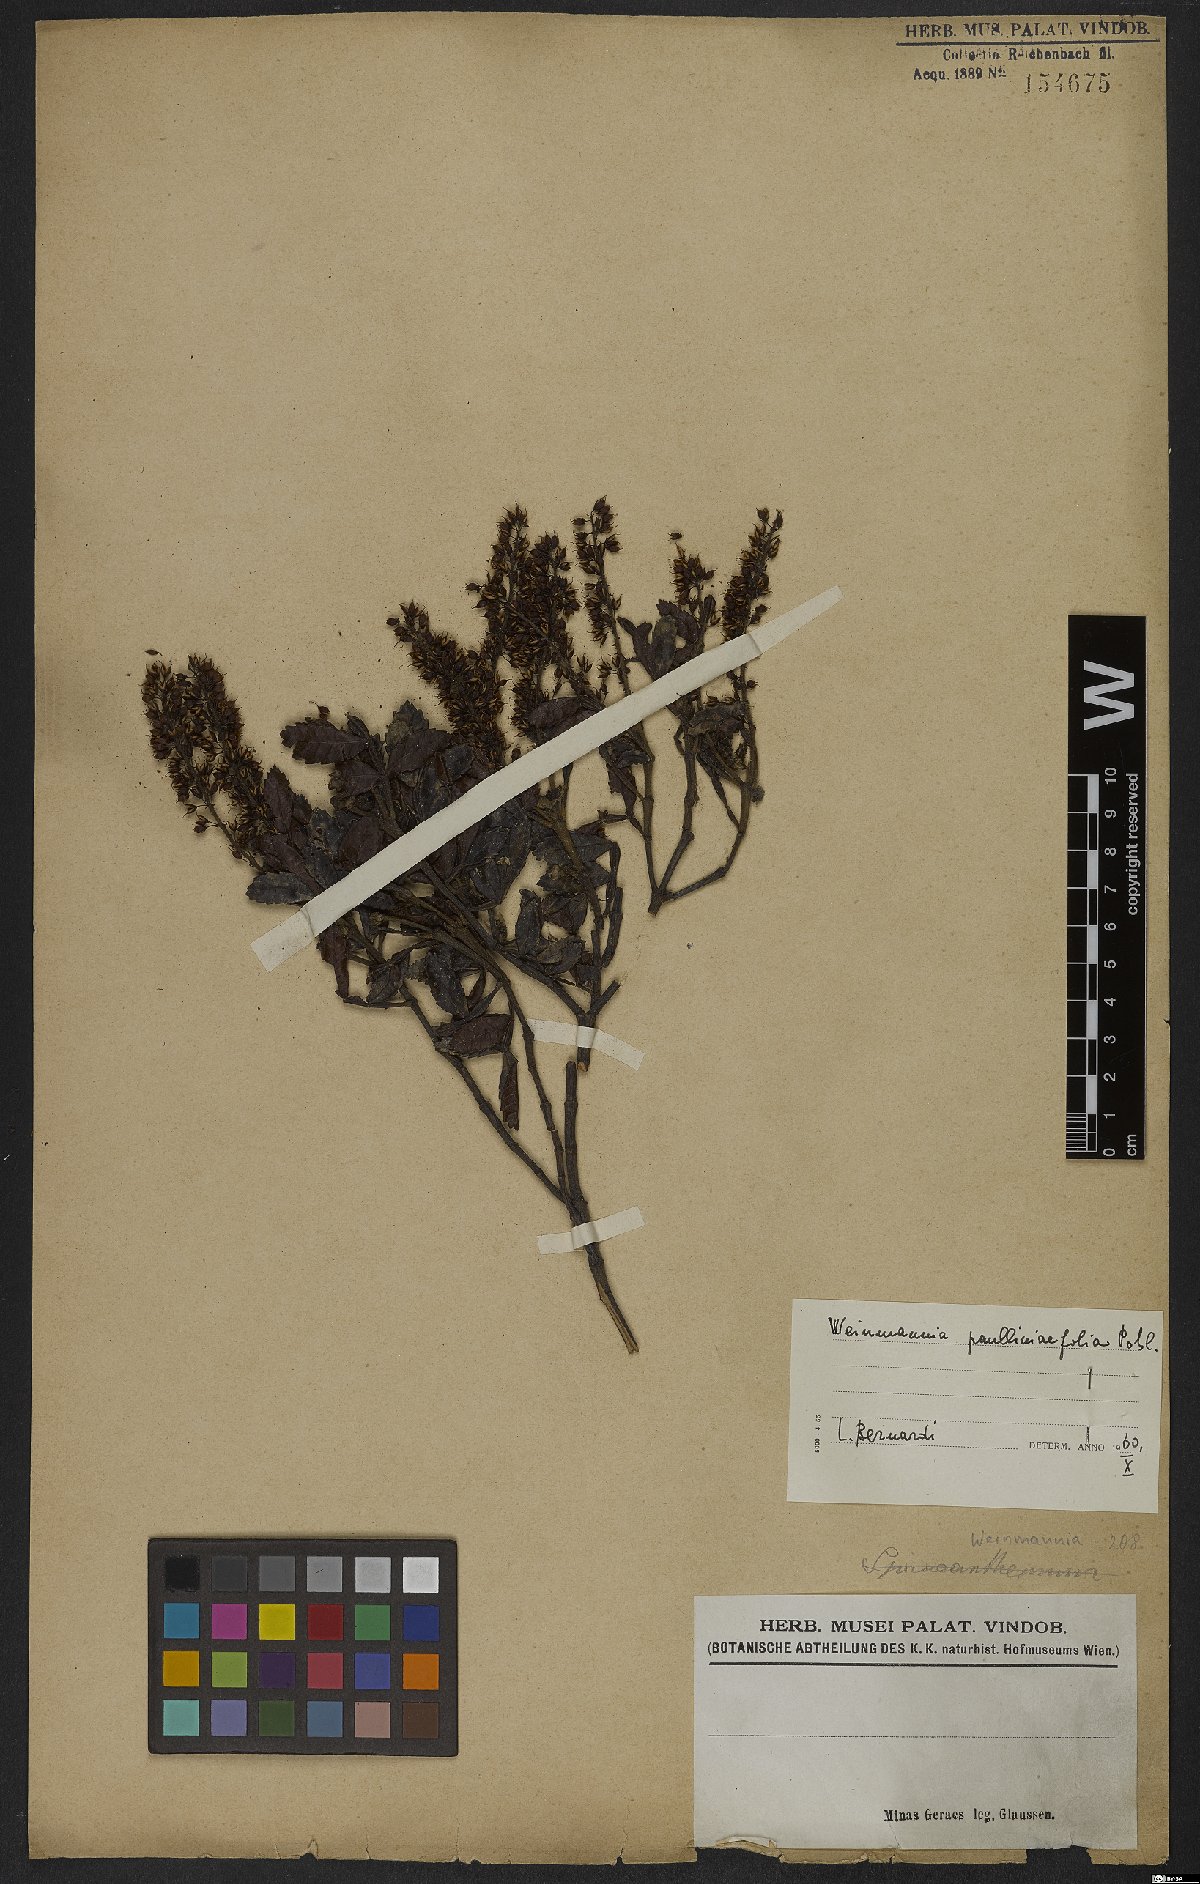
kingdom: Plantae
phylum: Tracheophyta
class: Magnoliopsida
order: Oxalidales
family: Cunoniaceae
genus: Weinmannia
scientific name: Weinmannia paullinifolia
